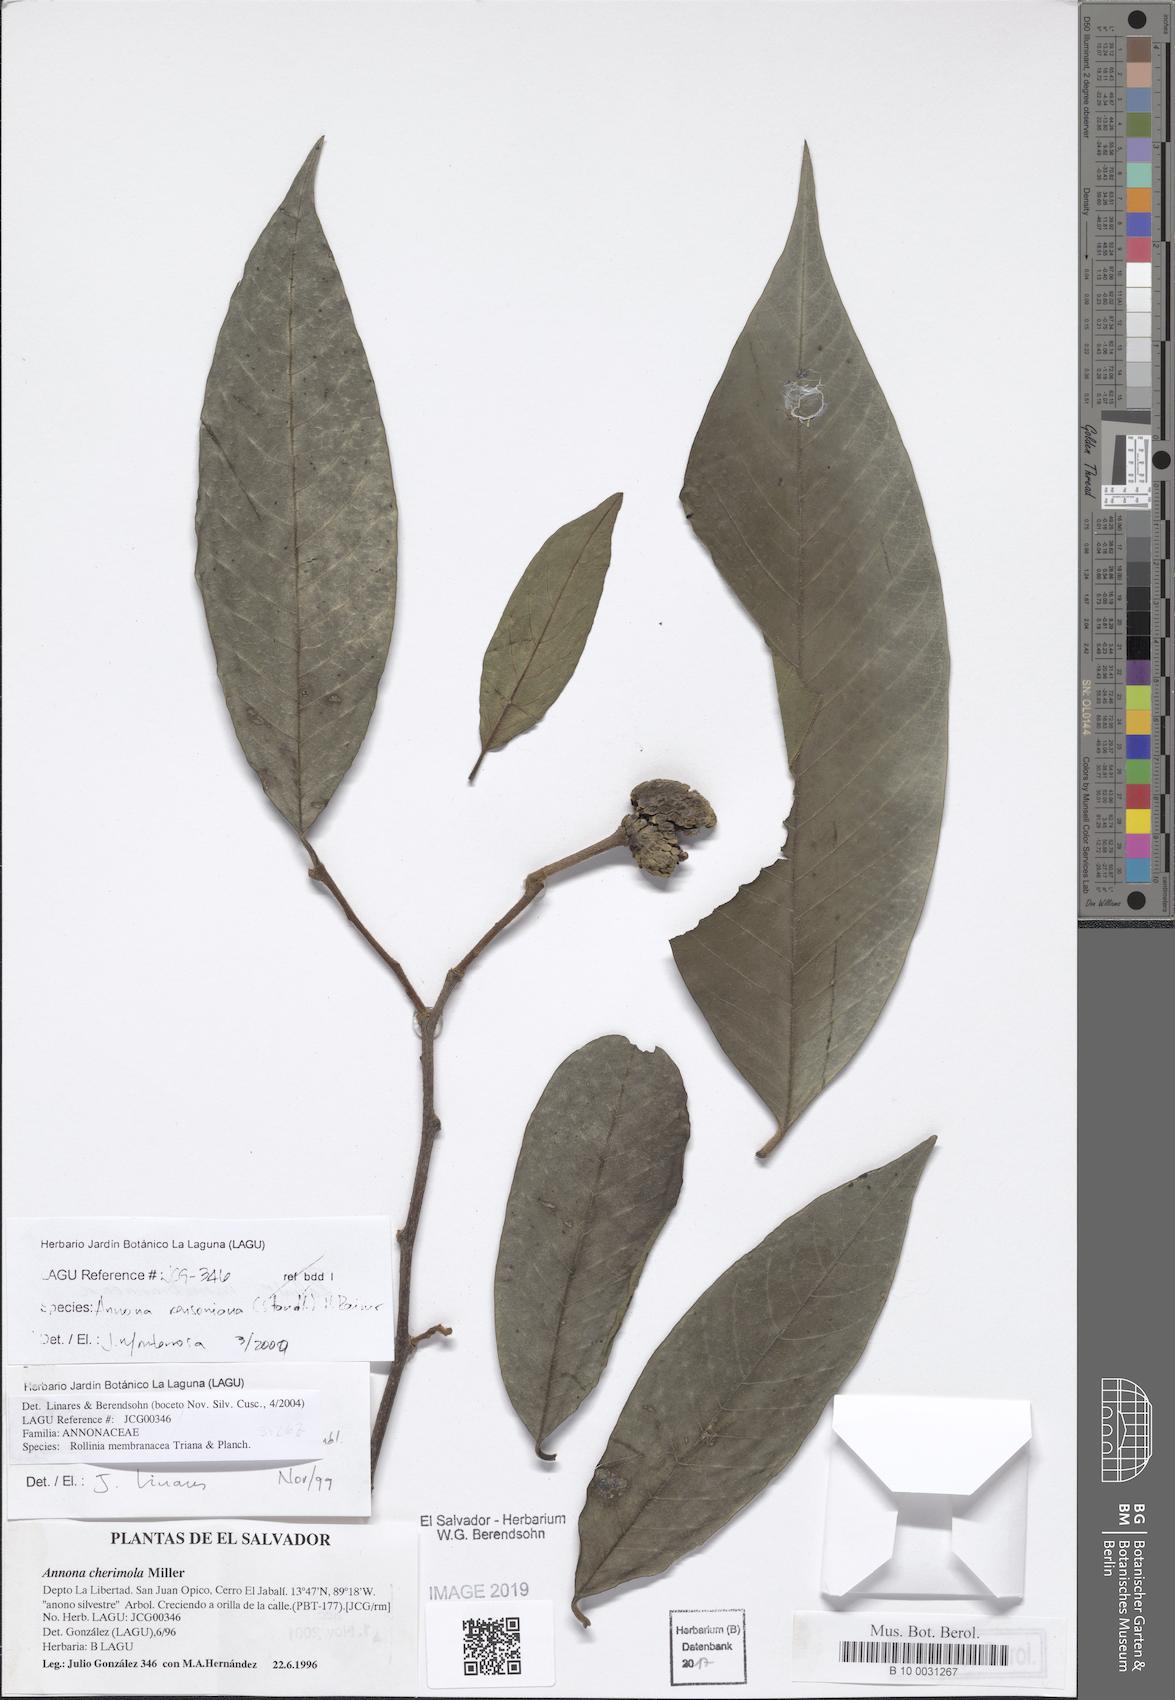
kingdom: Plantae
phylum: Tracheophyta
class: Magnoliopsida
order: Magnoliales
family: Annonaceae
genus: Annona
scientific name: Annona rensoniana
